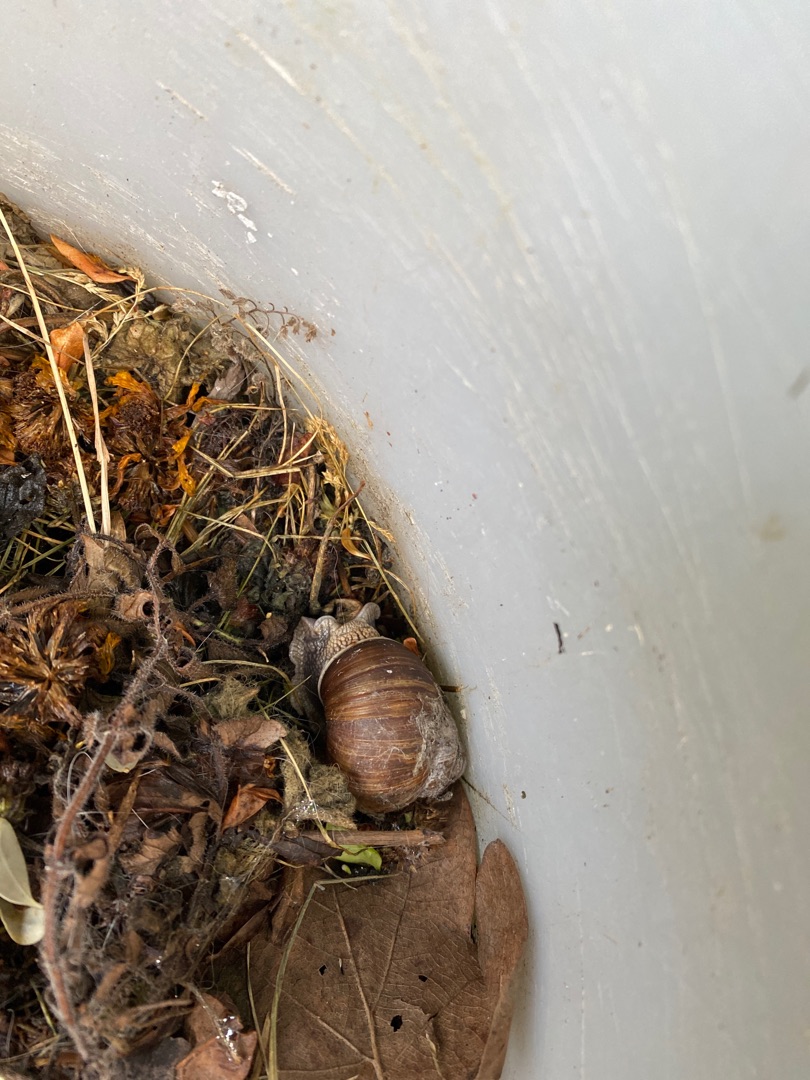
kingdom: Animalia
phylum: Mollusca
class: Gastropoda
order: Stylommatophora
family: Helicidae
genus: Helix
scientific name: Helix pomatia
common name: Vinbjergsnegl
